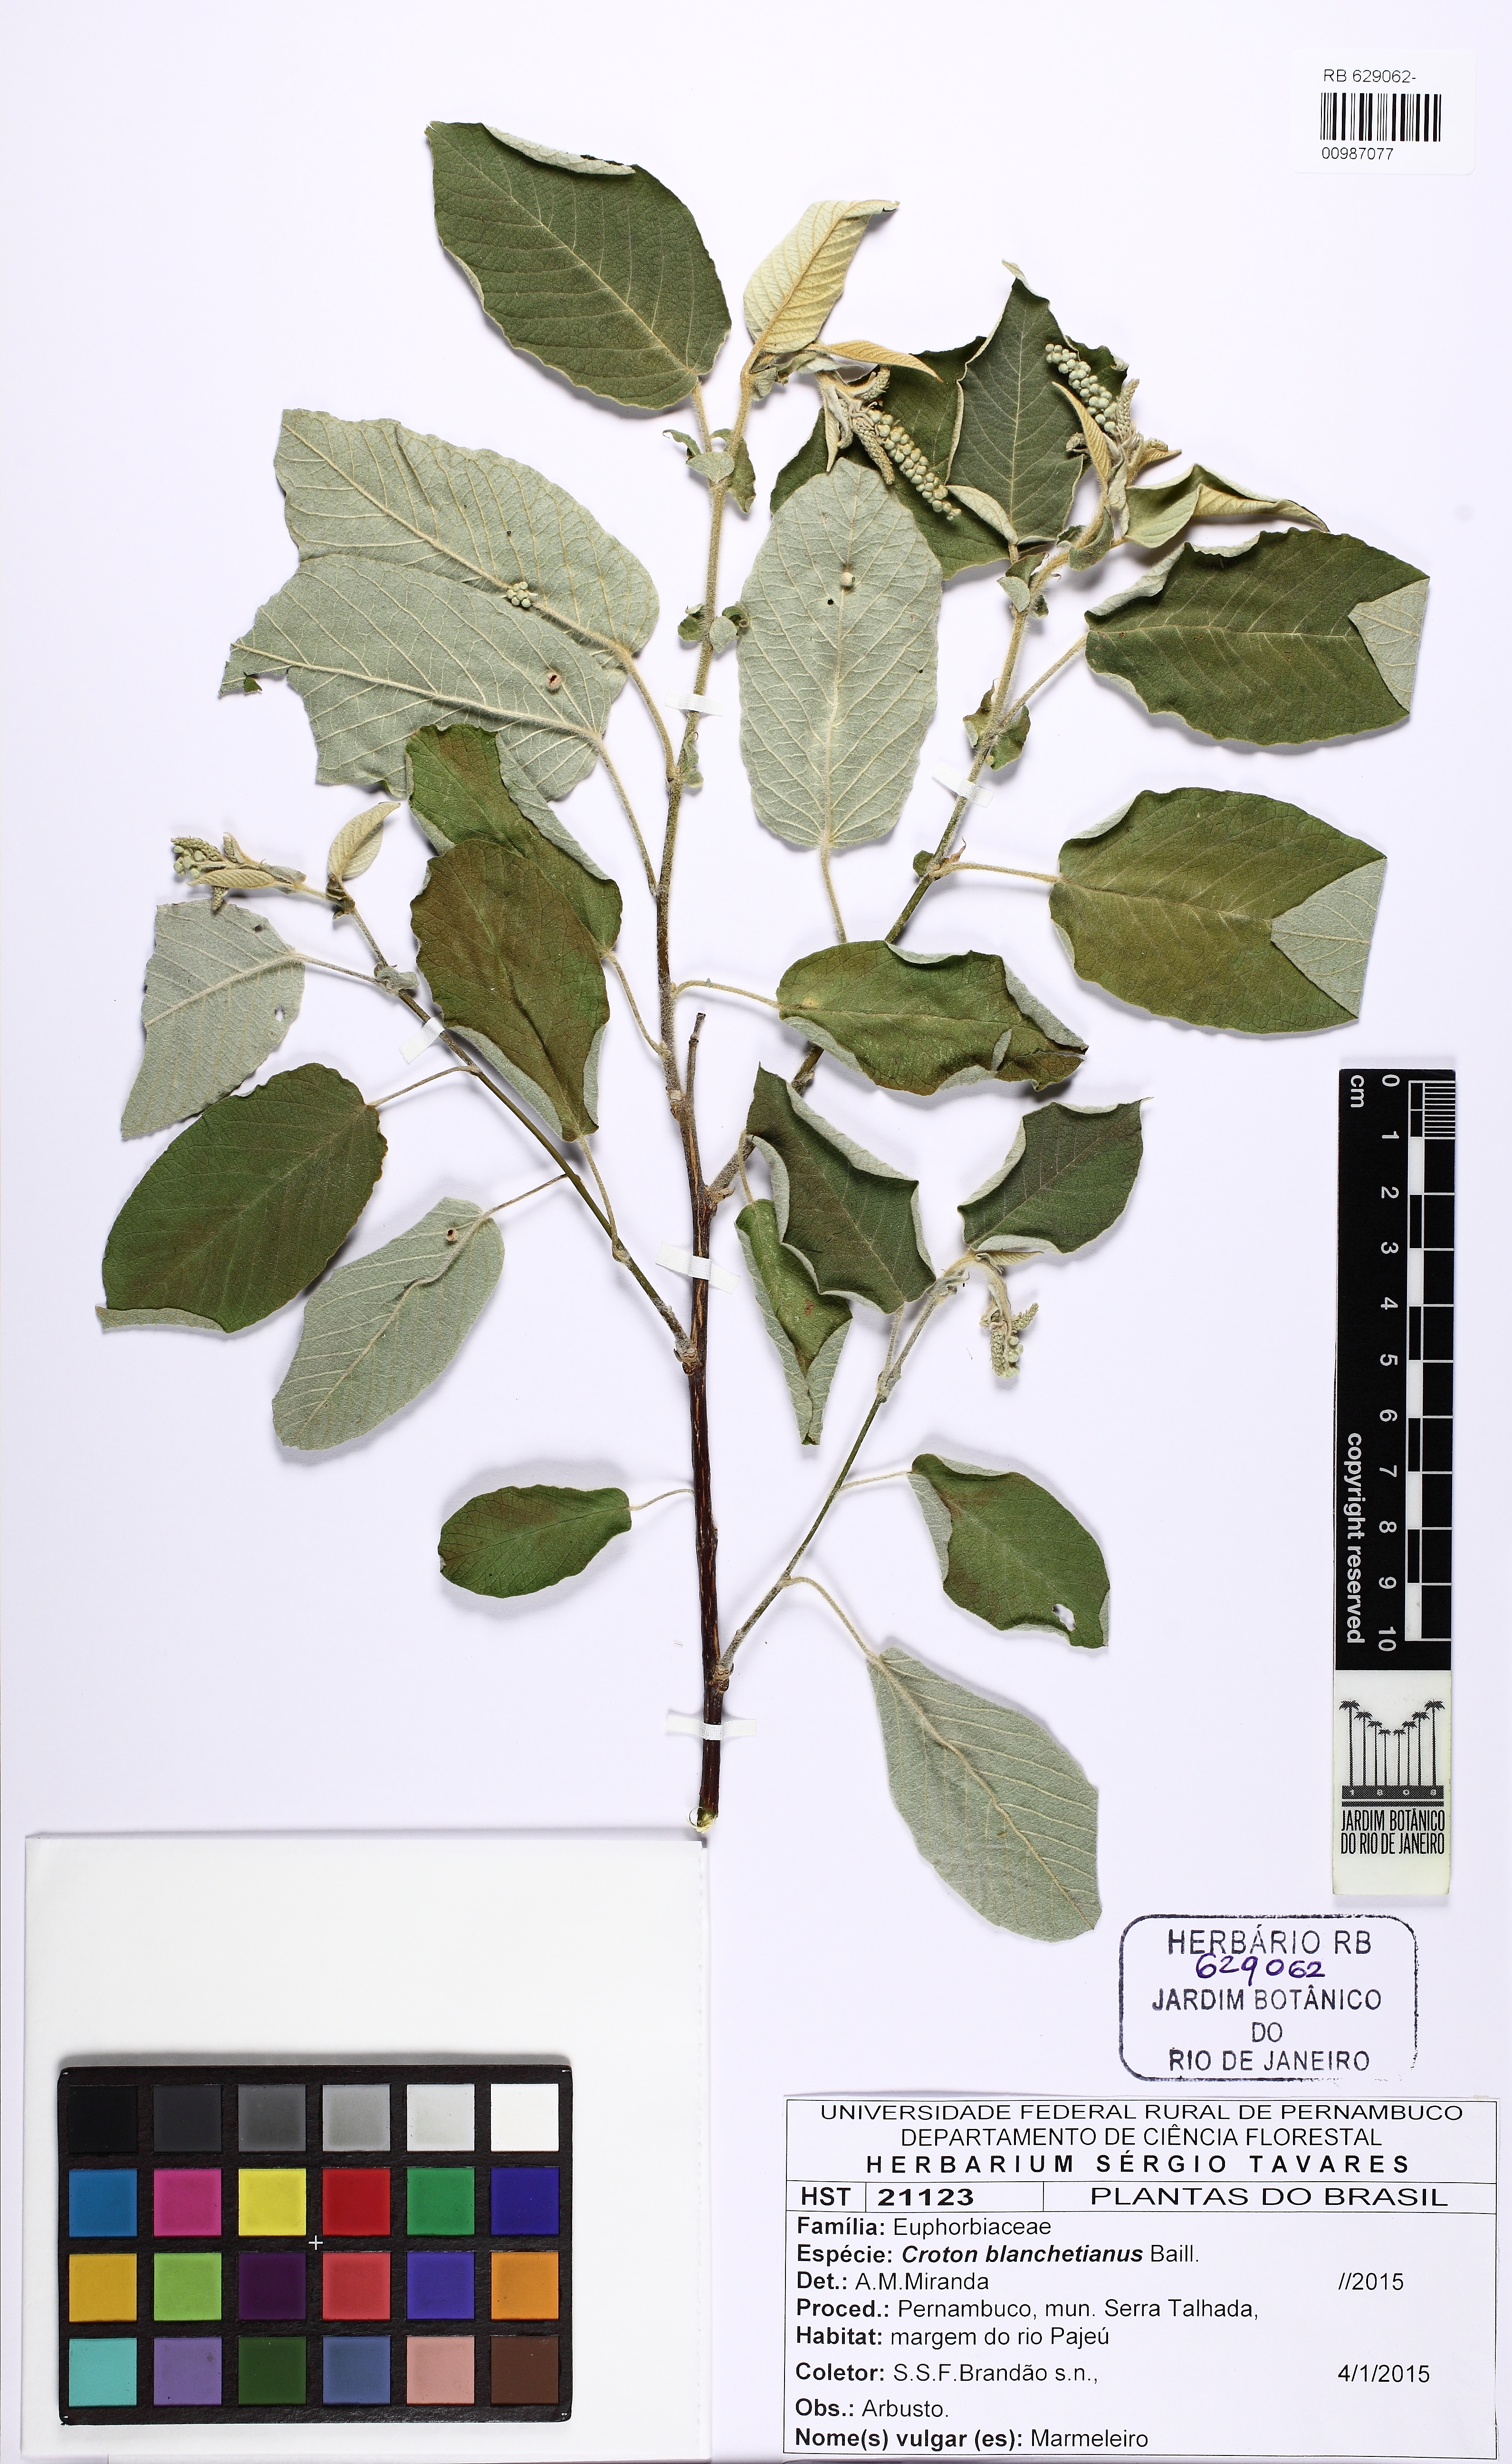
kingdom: Plantae
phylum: Tracheophyta
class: Magnoliopsida
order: Malpighiales
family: Euphorbiaceae
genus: Croton
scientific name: Croton blanchetianus
